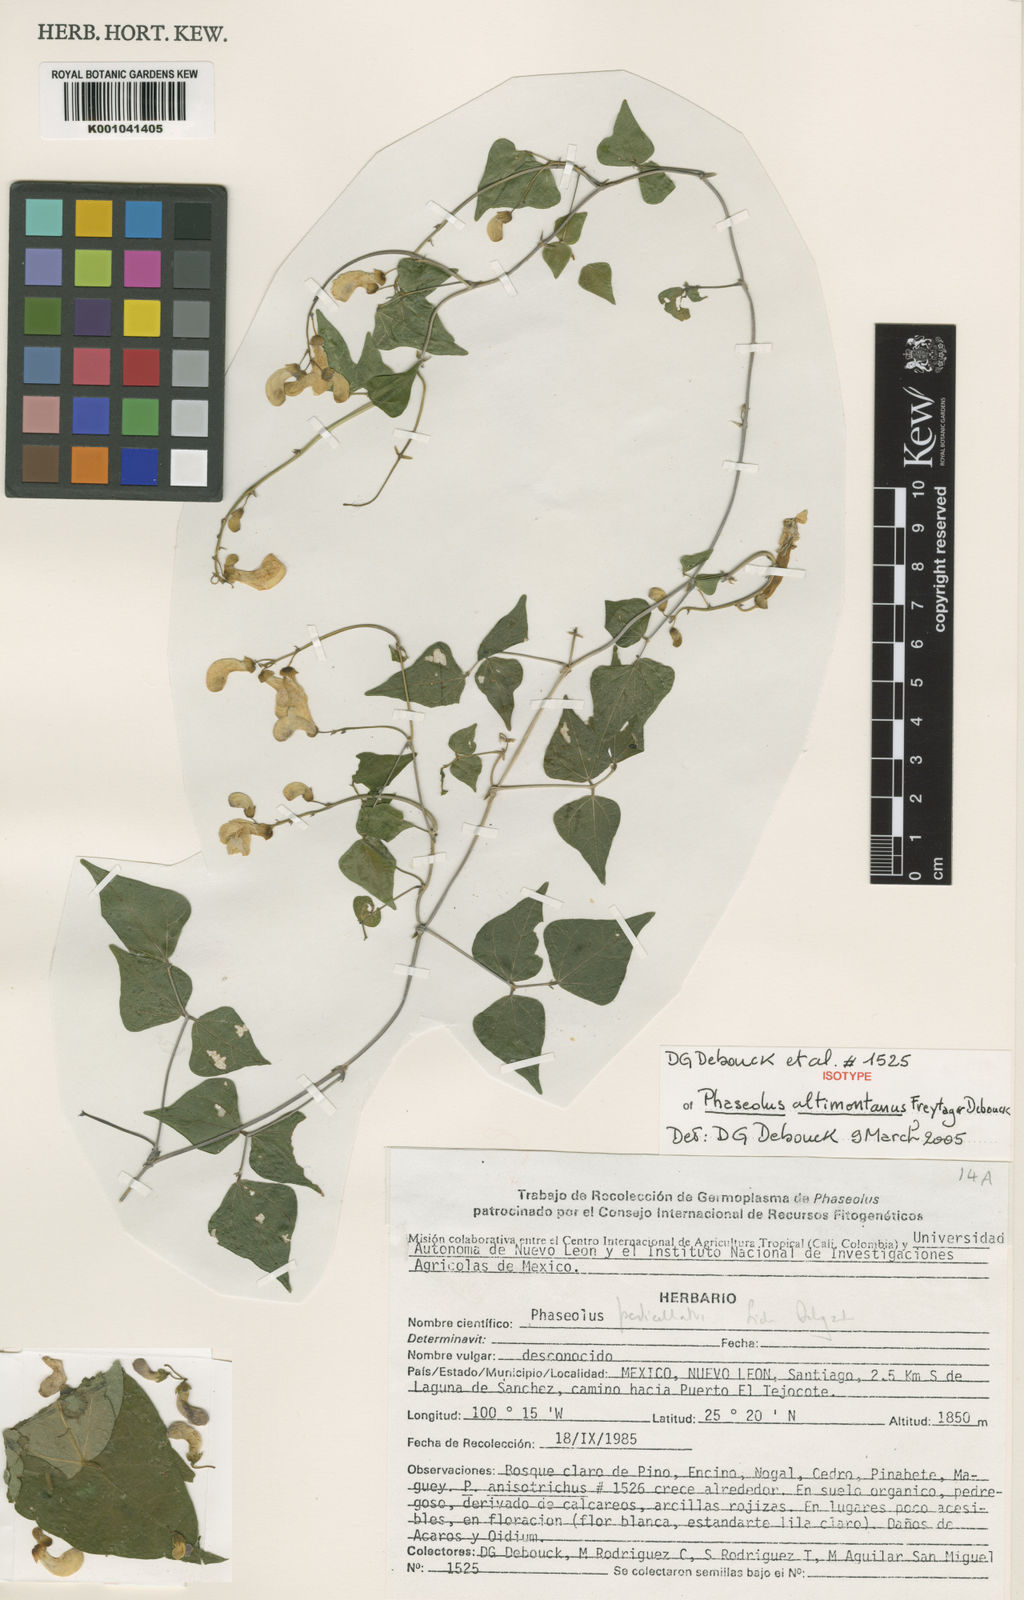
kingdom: Plantae
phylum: Tracheophyta
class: Magnoliopsida
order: Fabales
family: Fabaceae
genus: Phaseolus
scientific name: Phaseolus altimontanus
